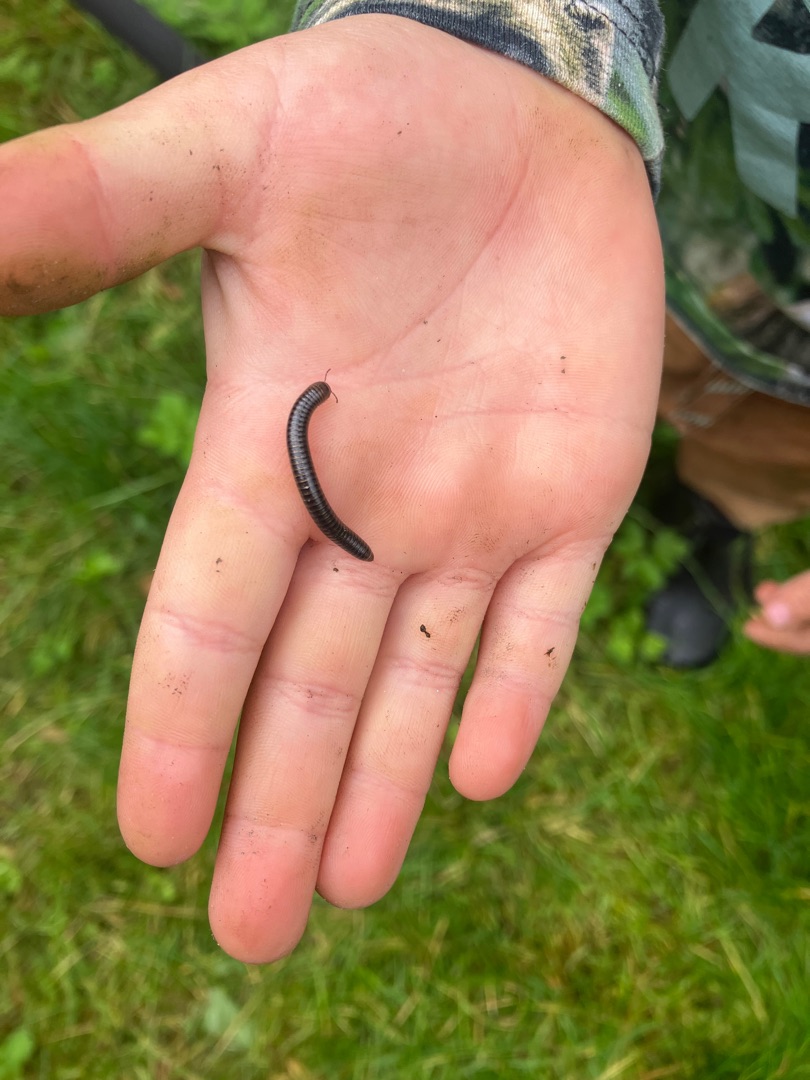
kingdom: Animalia
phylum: Arthropoda
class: Diplopoda
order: Julida
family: Julidae
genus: Cylindroiulus
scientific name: Cylindroiulus caeruleocinctus
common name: Havetusindben
